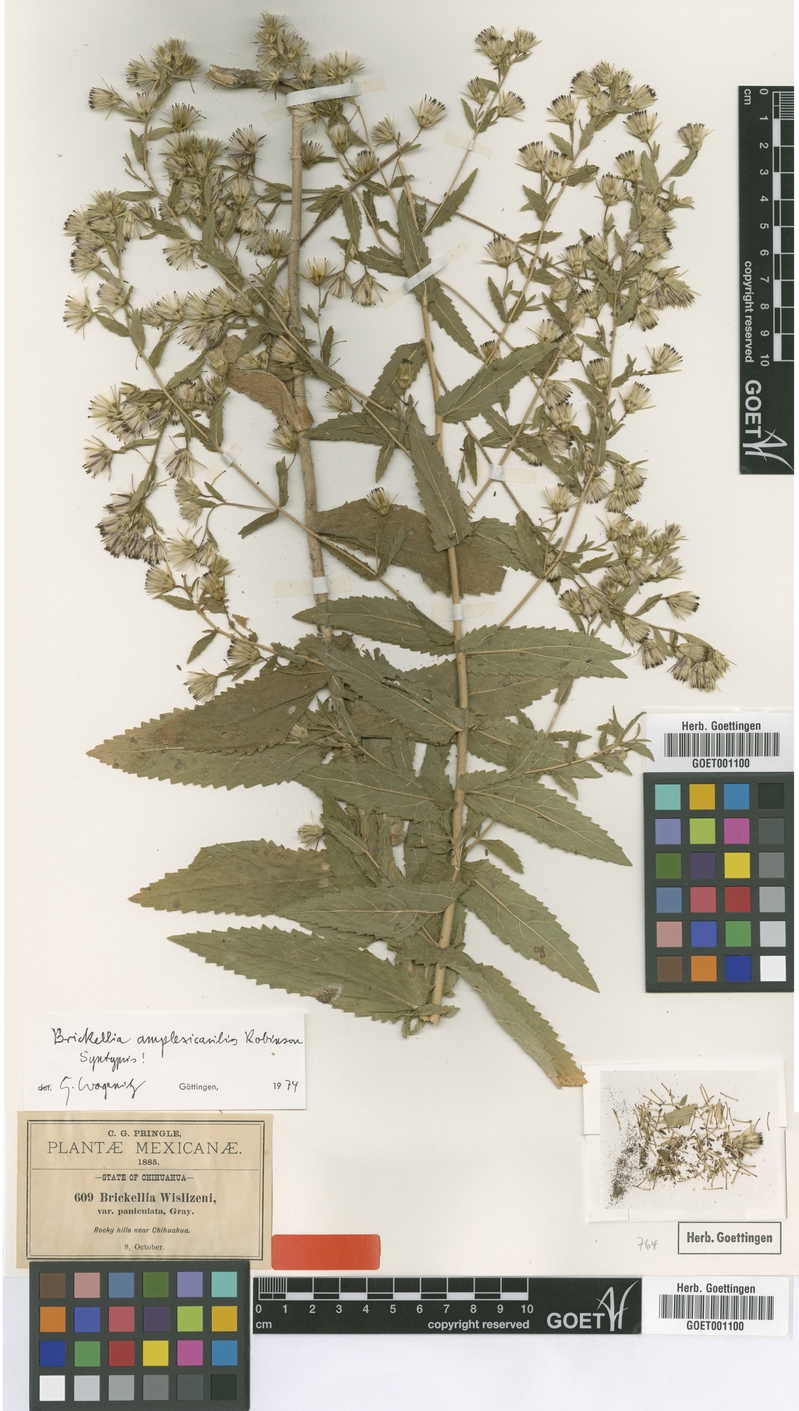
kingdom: Plantae
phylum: Tracheophyta
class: Magnoliopsida
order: Asterales
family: Asteraceae
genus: Brickellia
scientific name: Brickellia amplexicaulis
